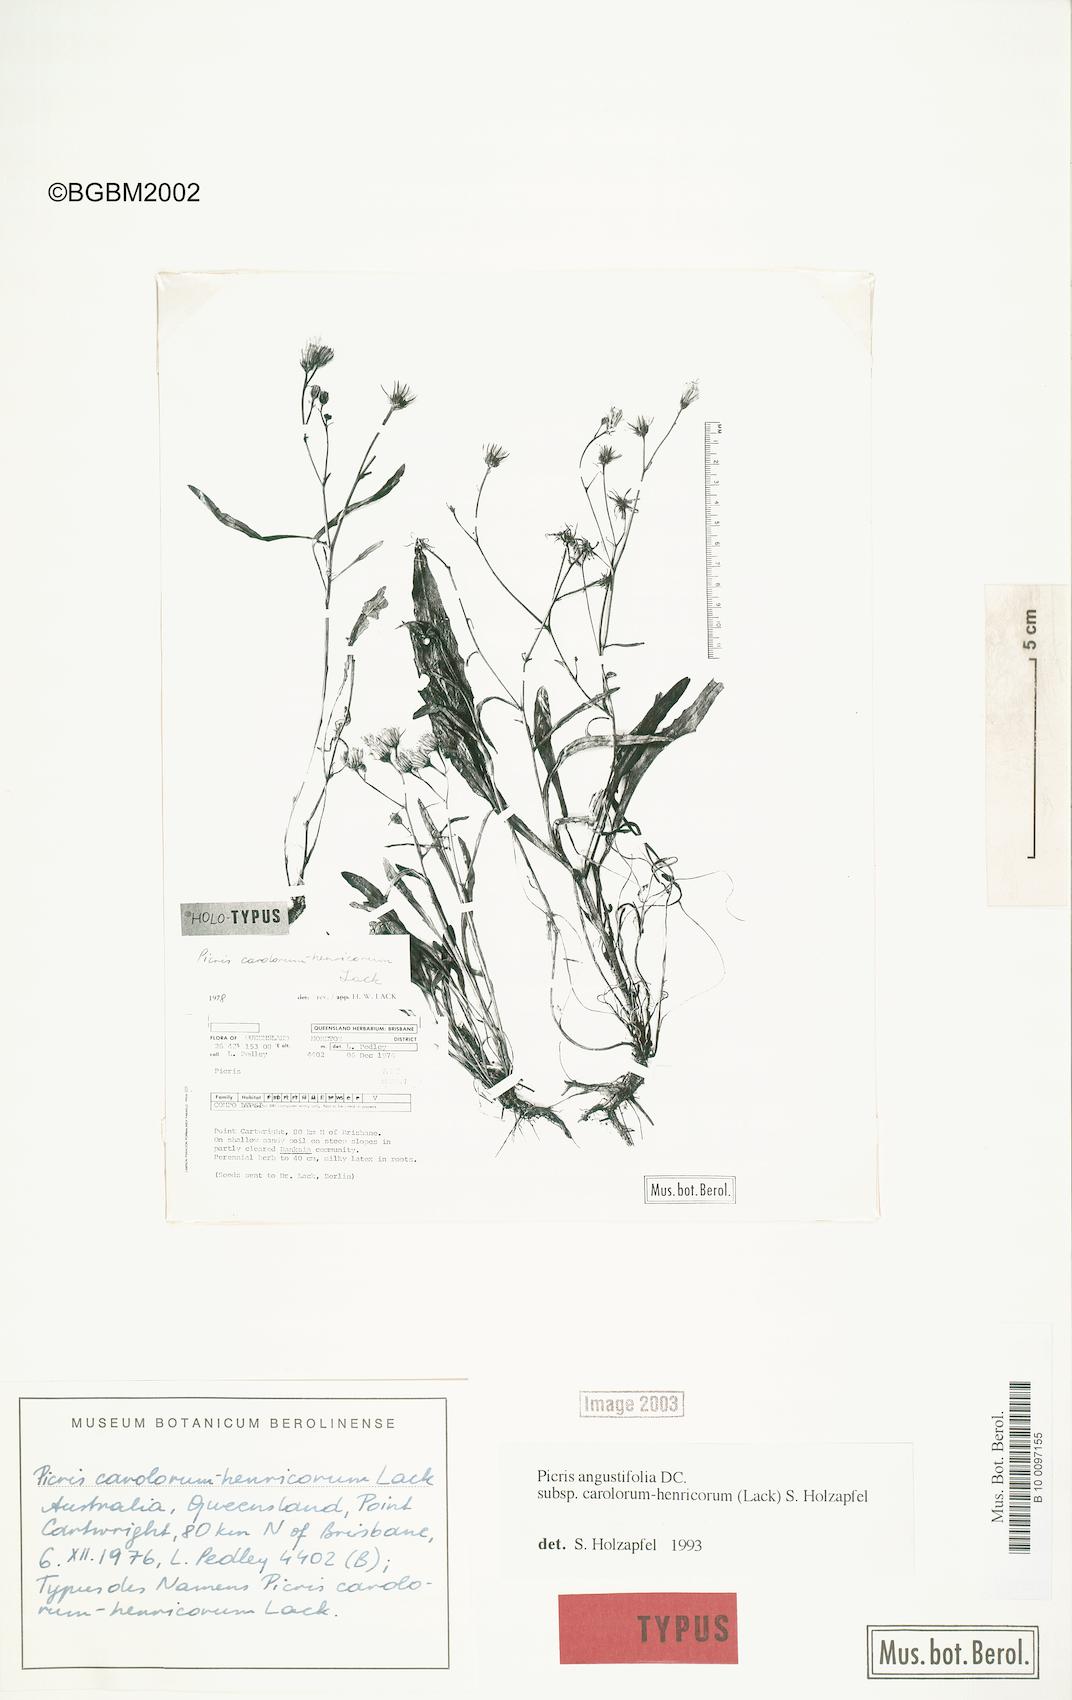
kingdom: Plantae
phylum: Tracheophyta
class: Magnoliopsida
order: Asterales
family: Asteraceae
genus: Picris
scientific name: Picris angustifolia
